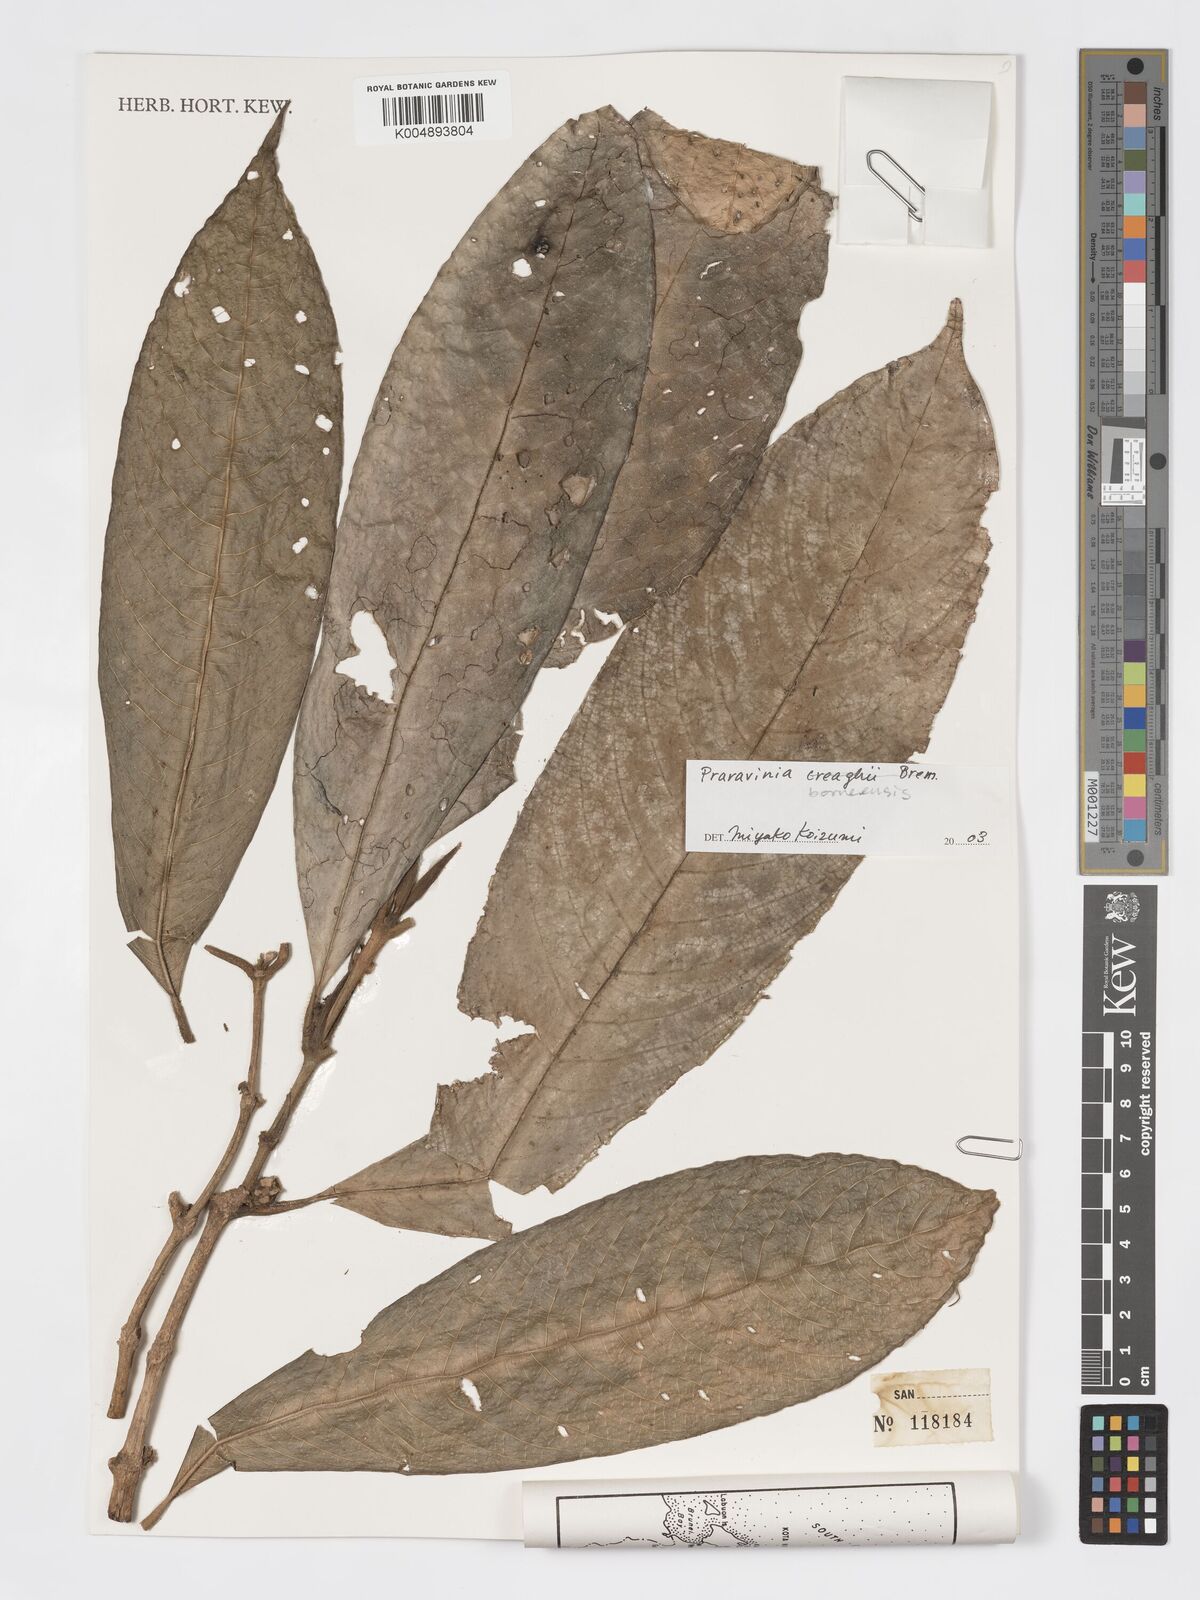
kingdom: Plantae
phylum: Tracheophyta
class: Magnoliopsida
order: Gentianales
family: Rubiaceae
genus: Praravinia
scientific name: Praravinia borneensis
